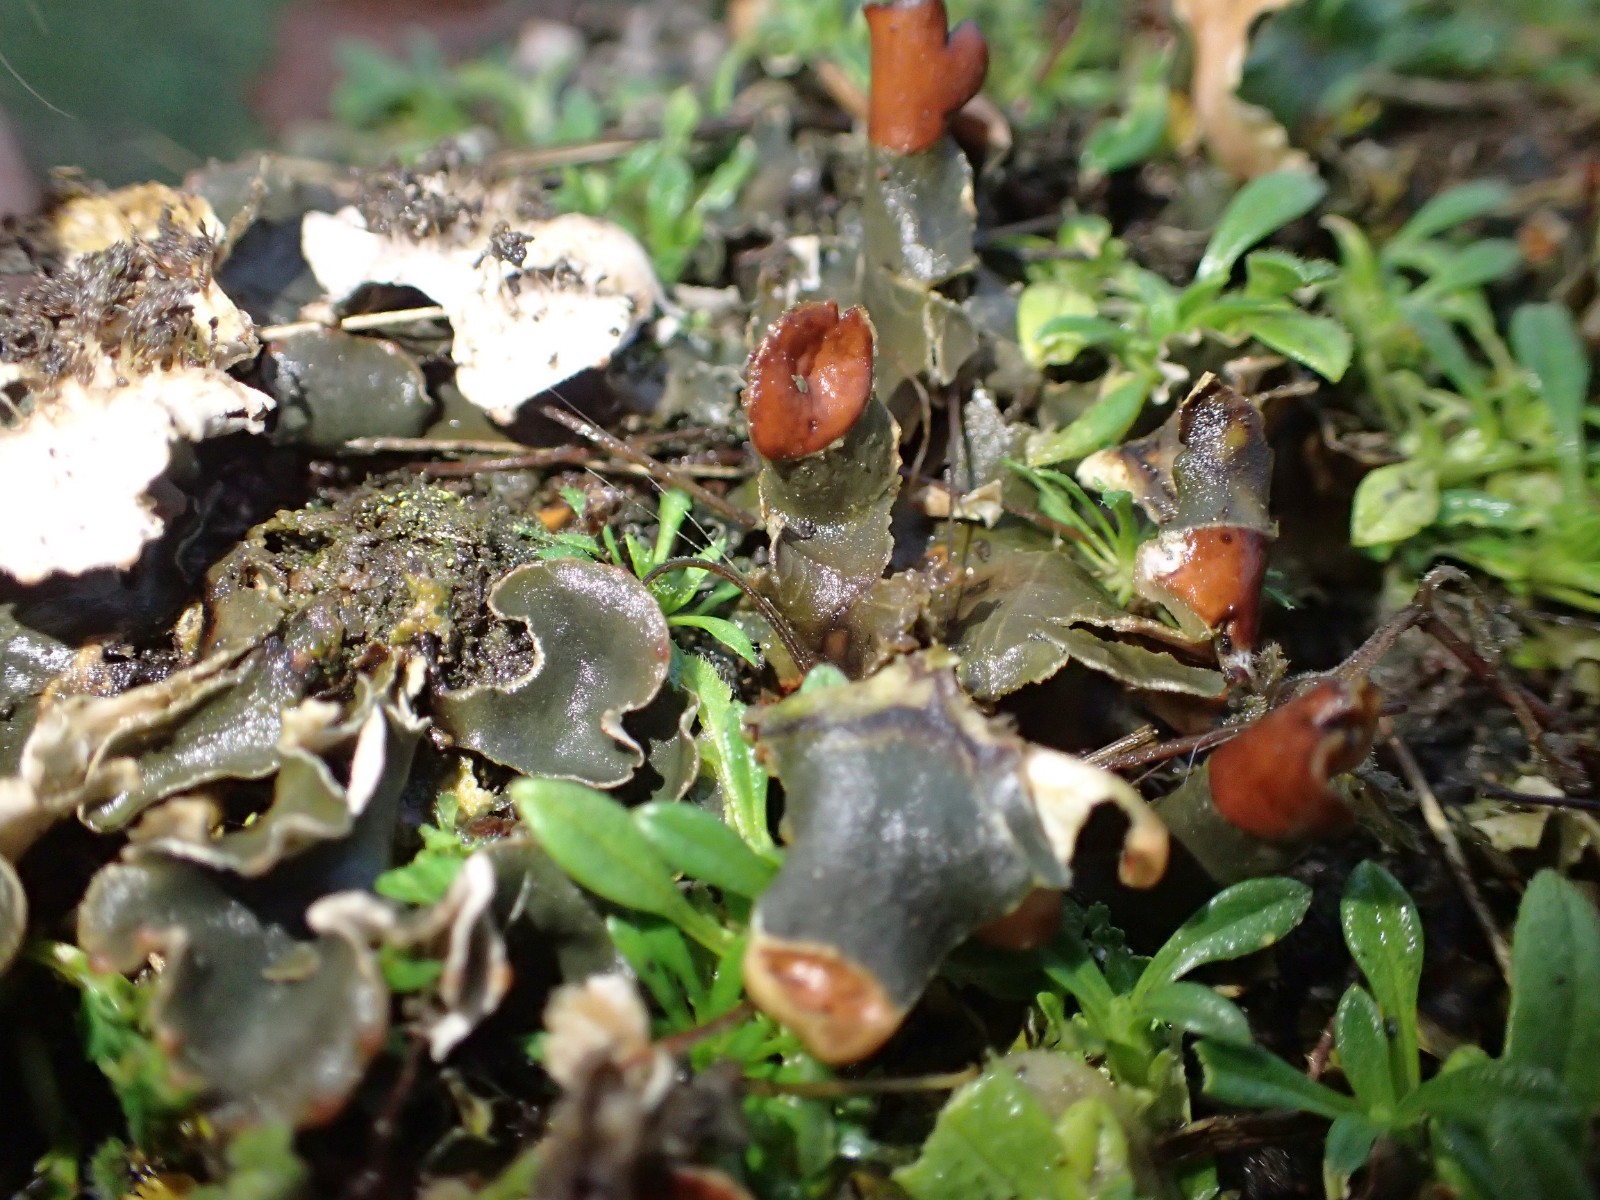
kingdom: Fungi
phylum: Ascomycota
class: Lecanoromycetes
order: Peltigerales
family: Peltigeraceae
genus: Peltigera
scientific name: Peltigera didactyla
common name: liden skjoldlav
